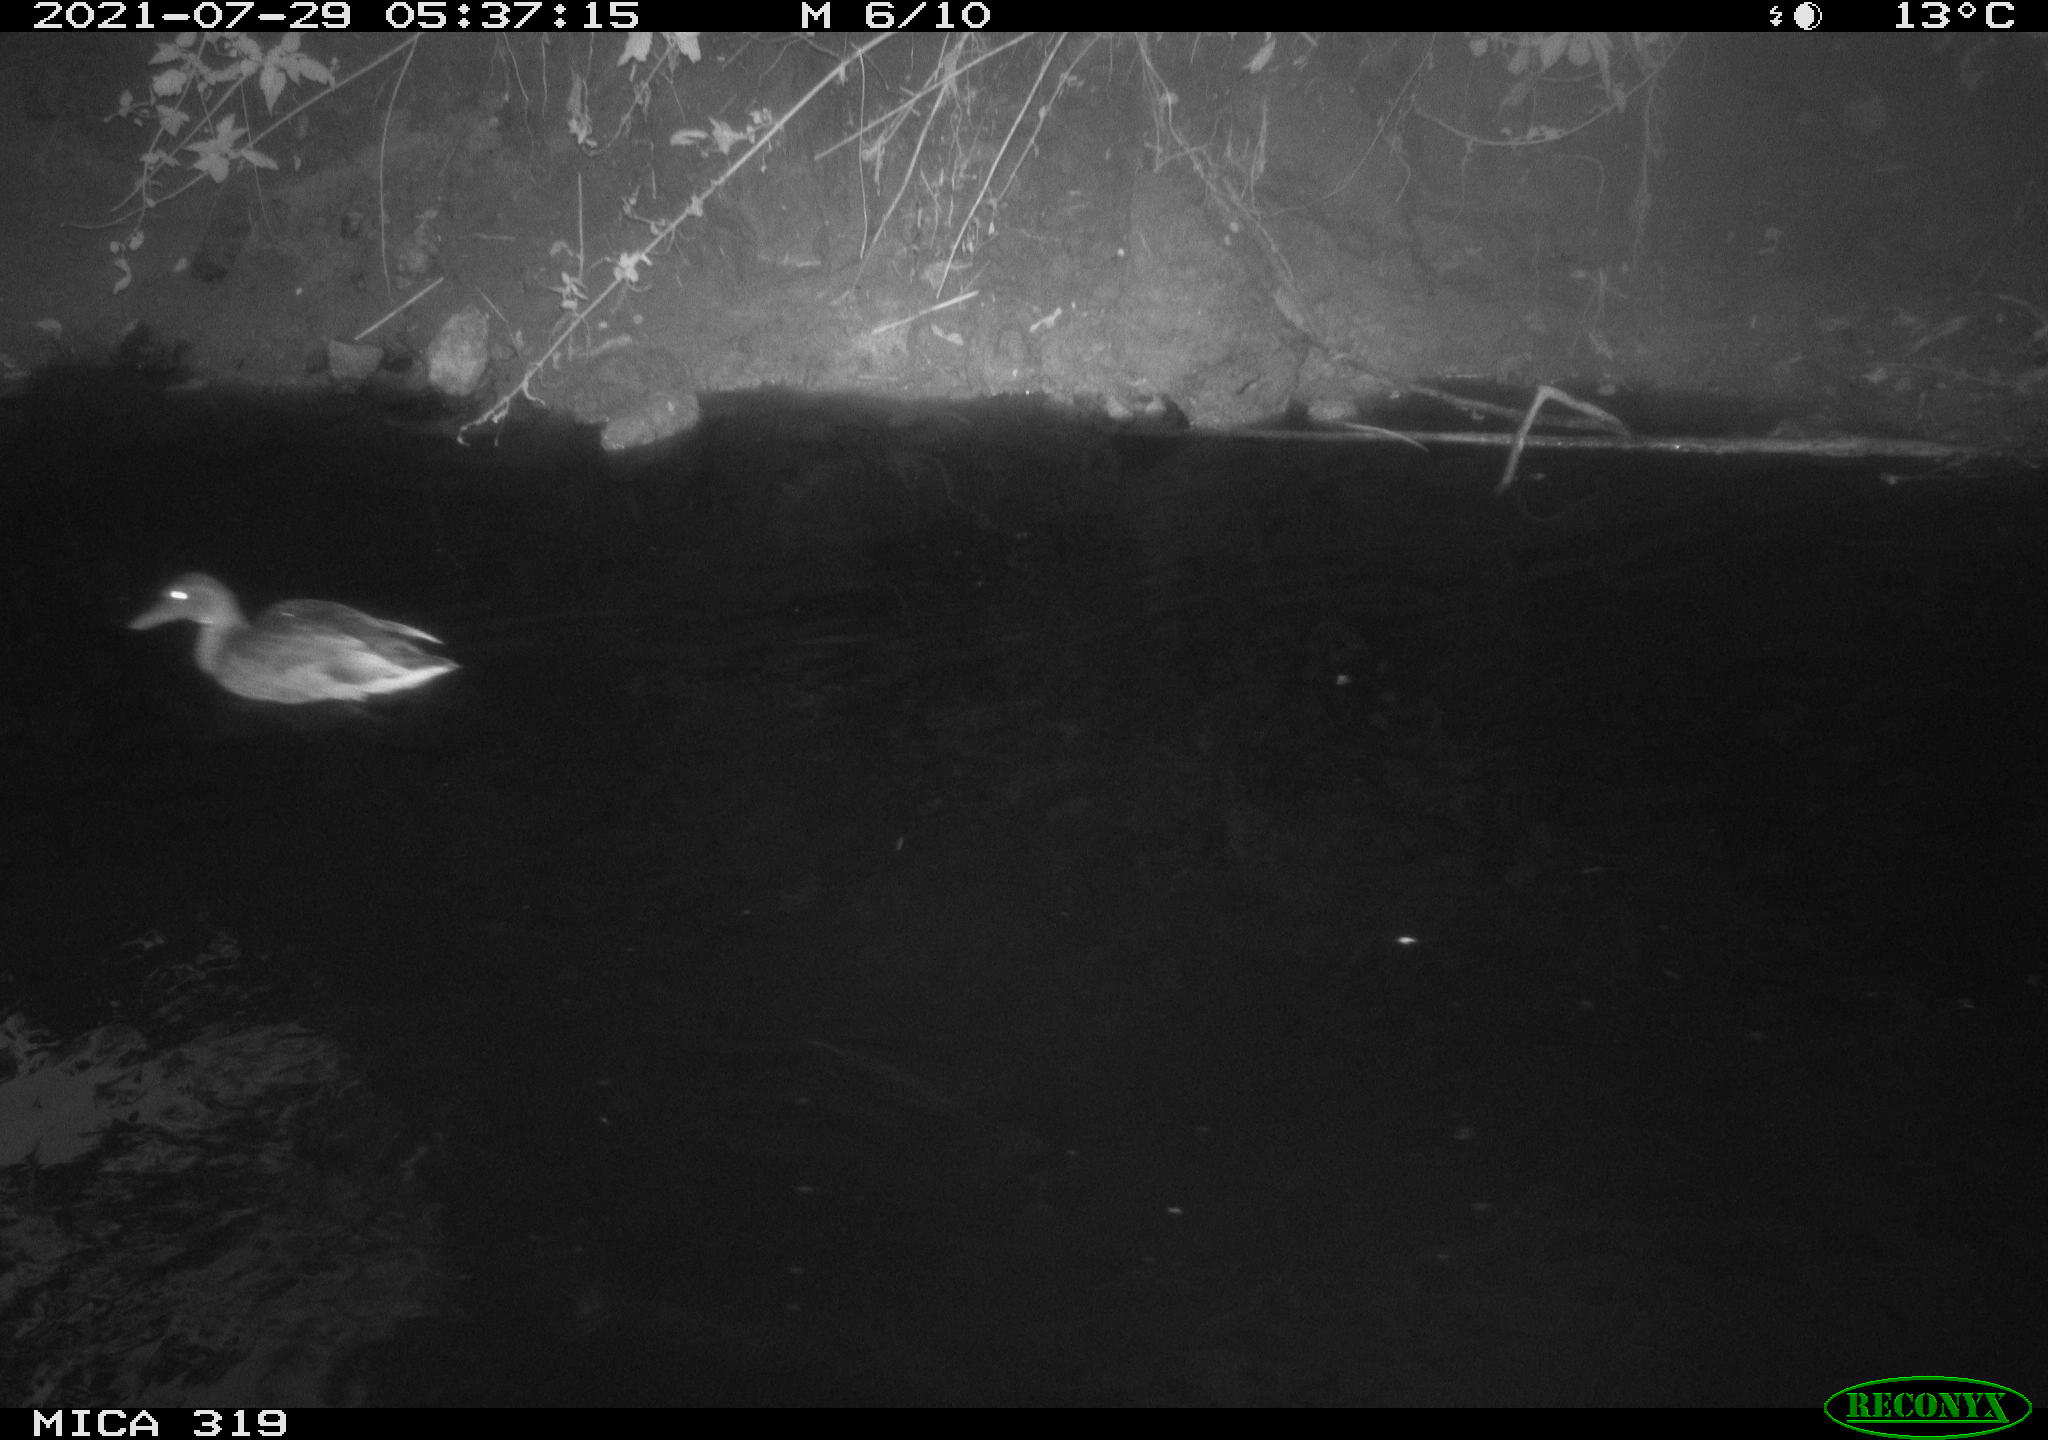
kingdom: Animalia
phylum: Chordata
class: Aves
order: Anseriformes
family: Anatidae
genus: Anas
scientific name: Anas platyrhynchos
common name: Mallard
